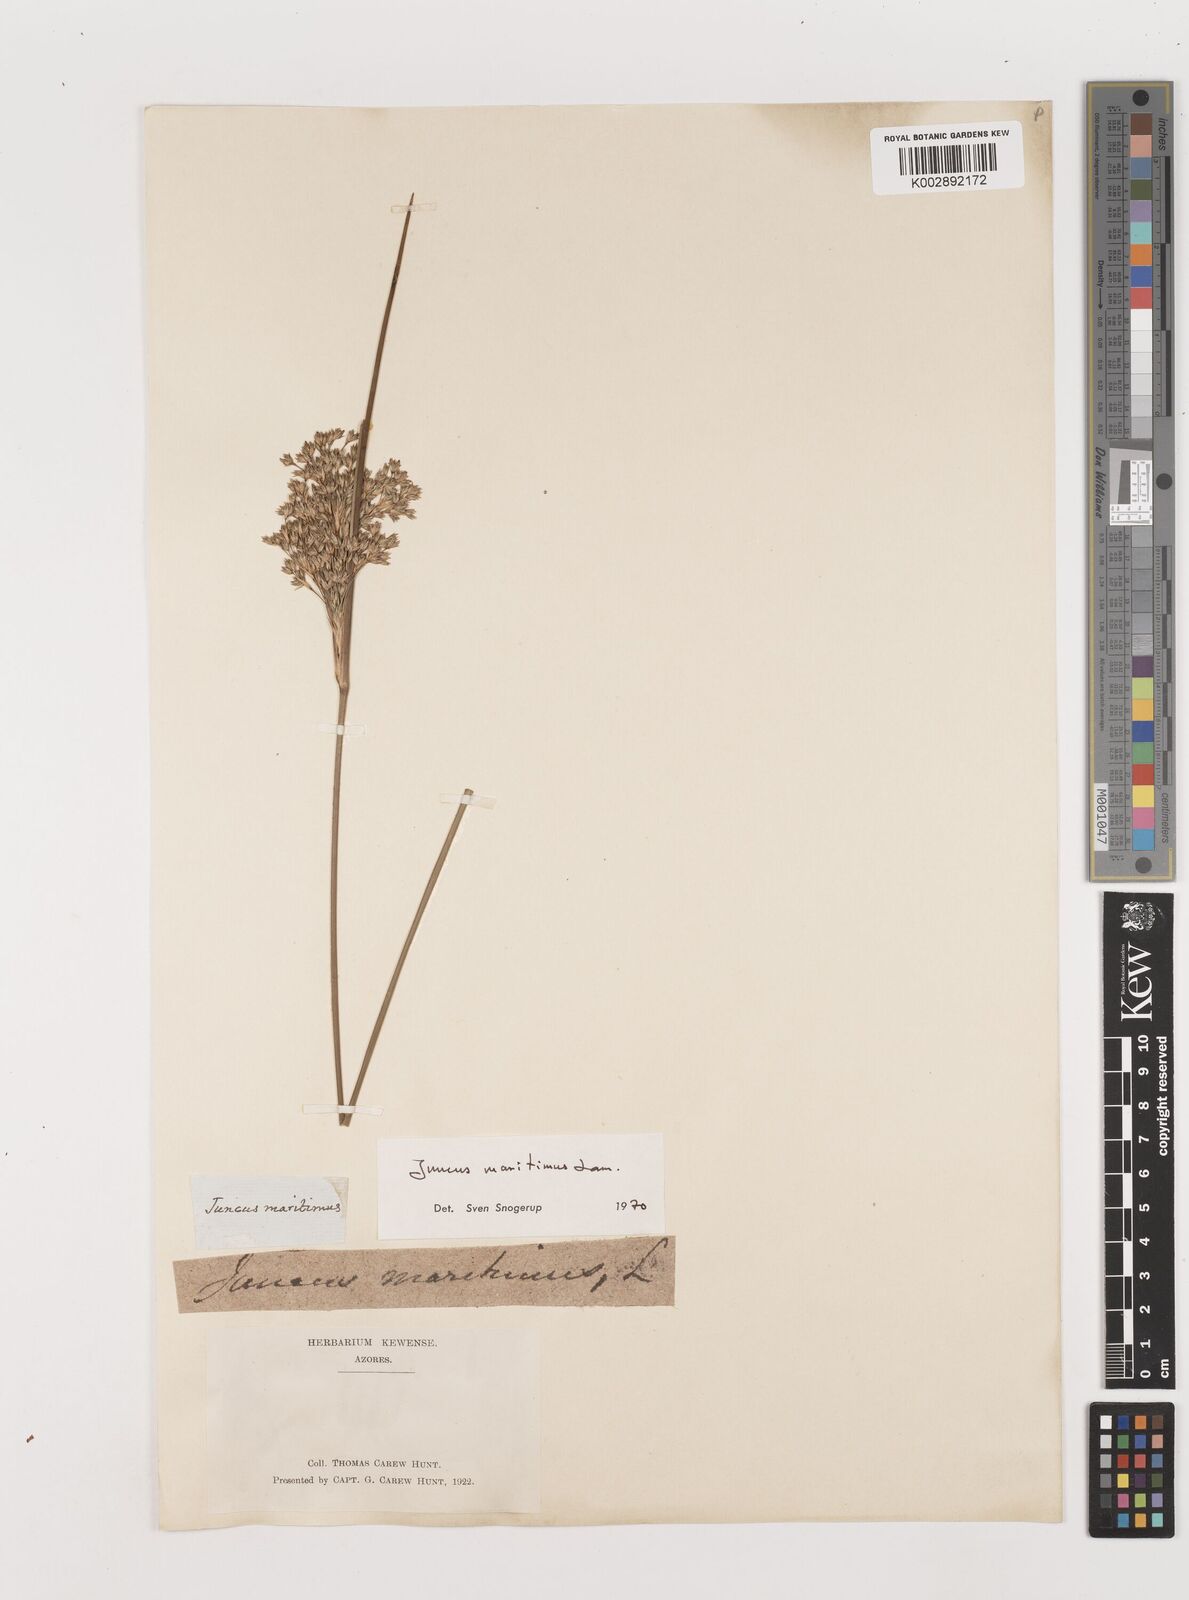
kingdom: Plantae
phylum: Tracheophyta
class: Liliopsida
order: Poales
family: Juncaceae
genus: Juncus
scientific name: Juncus maritimus
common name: Sea rush
